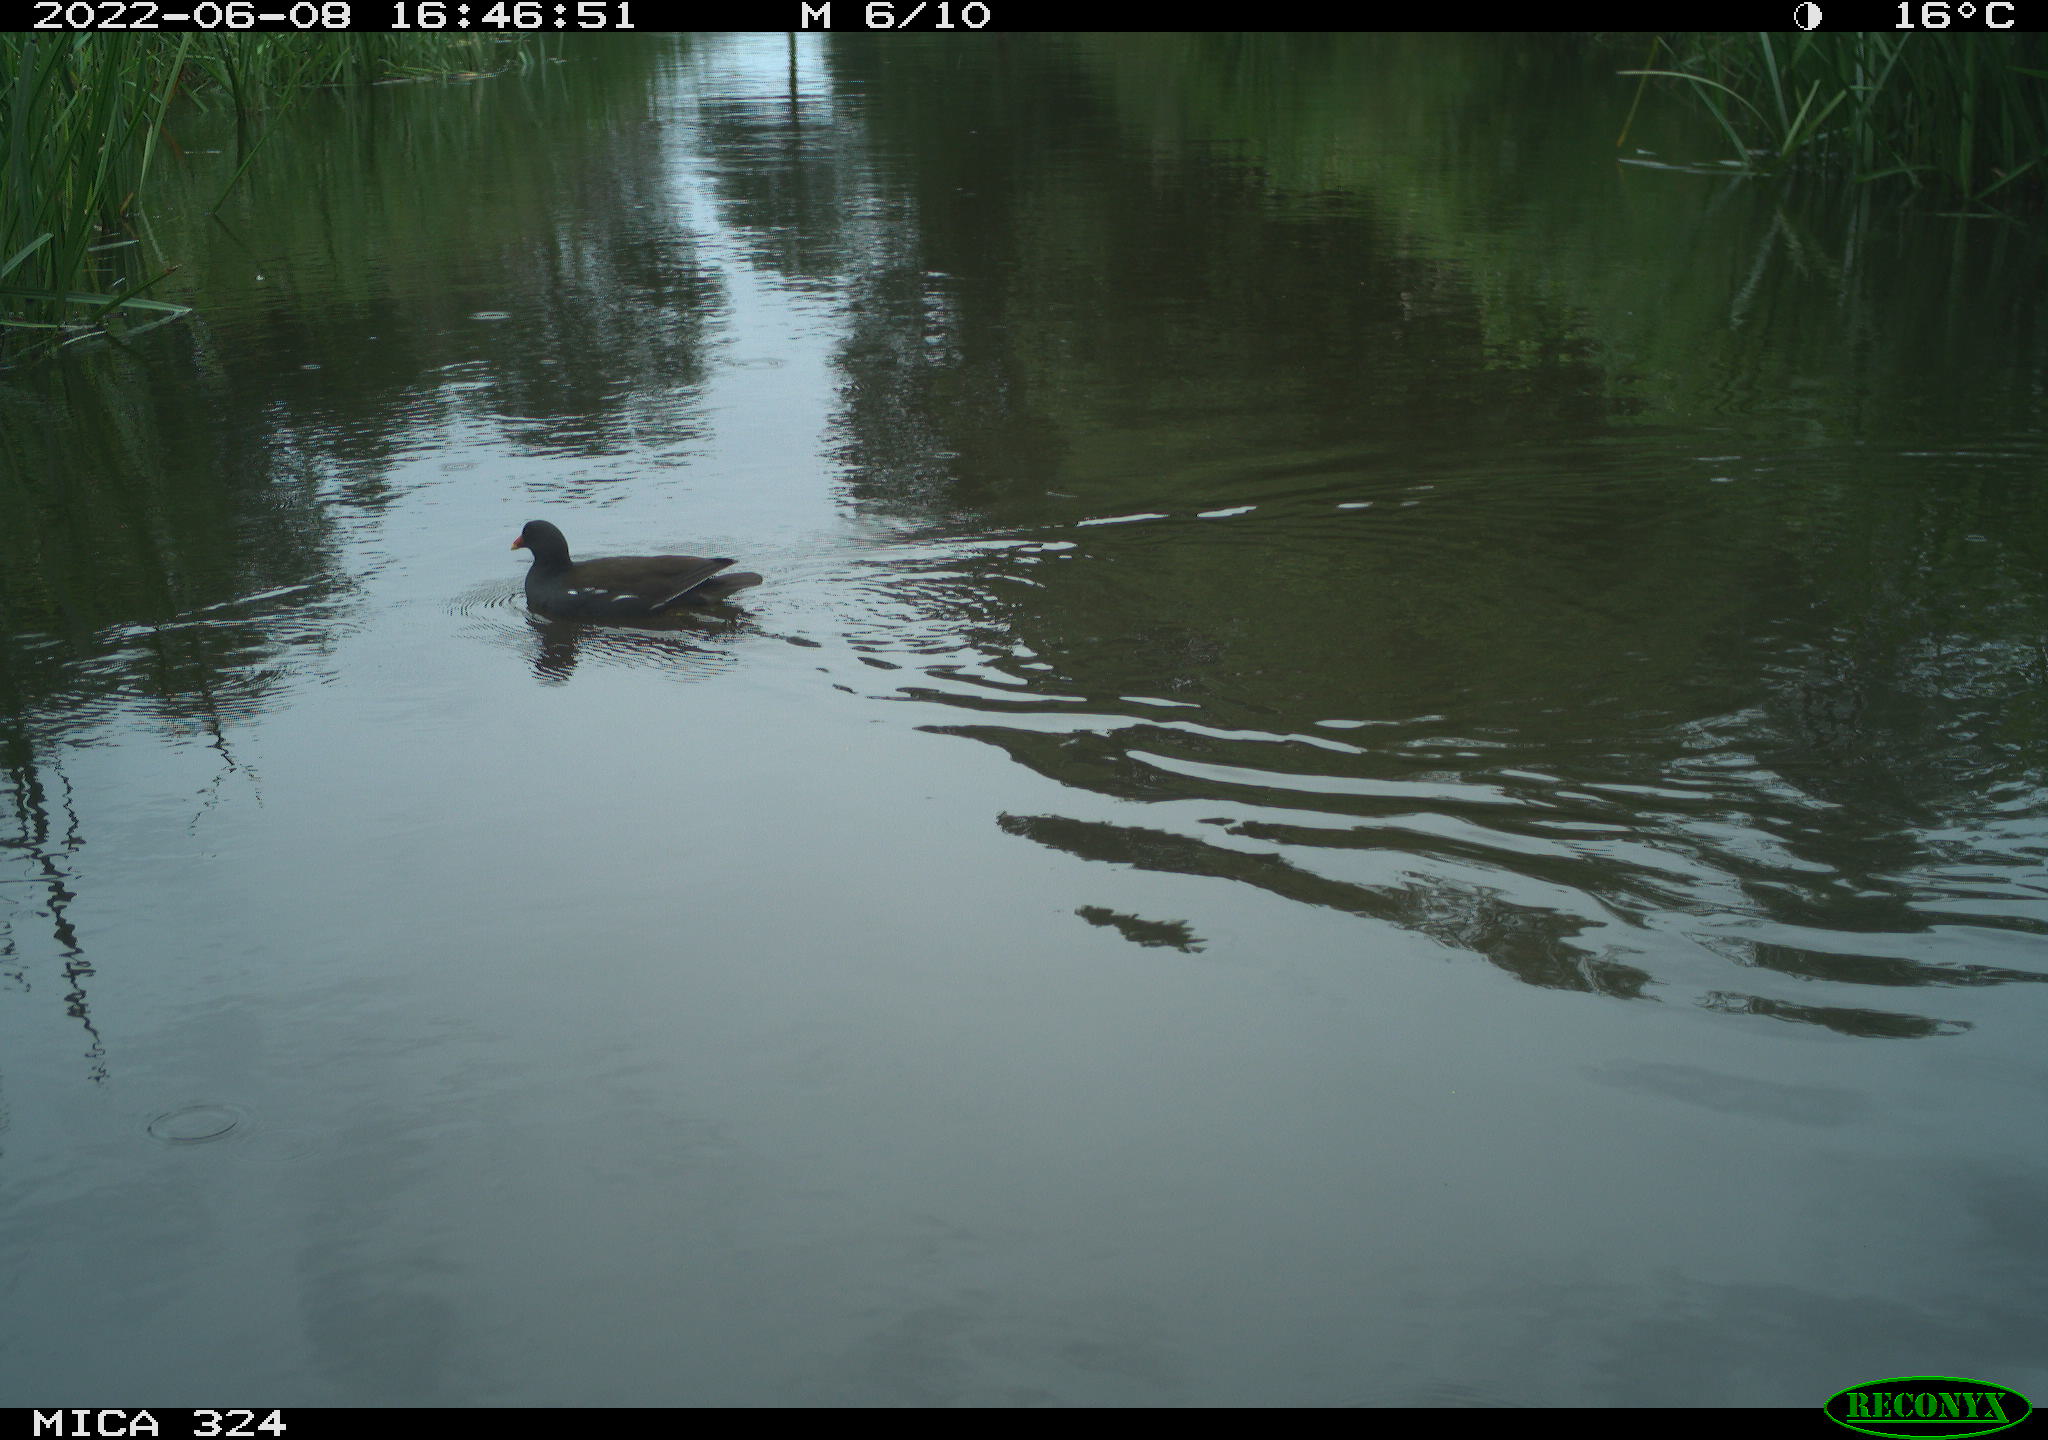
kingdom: Animalia
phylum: Chordata
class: Aves
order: Gruiformes
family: Rallidae
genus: Gallinula
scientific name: Gallinula chloropus
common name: Common moorhen
